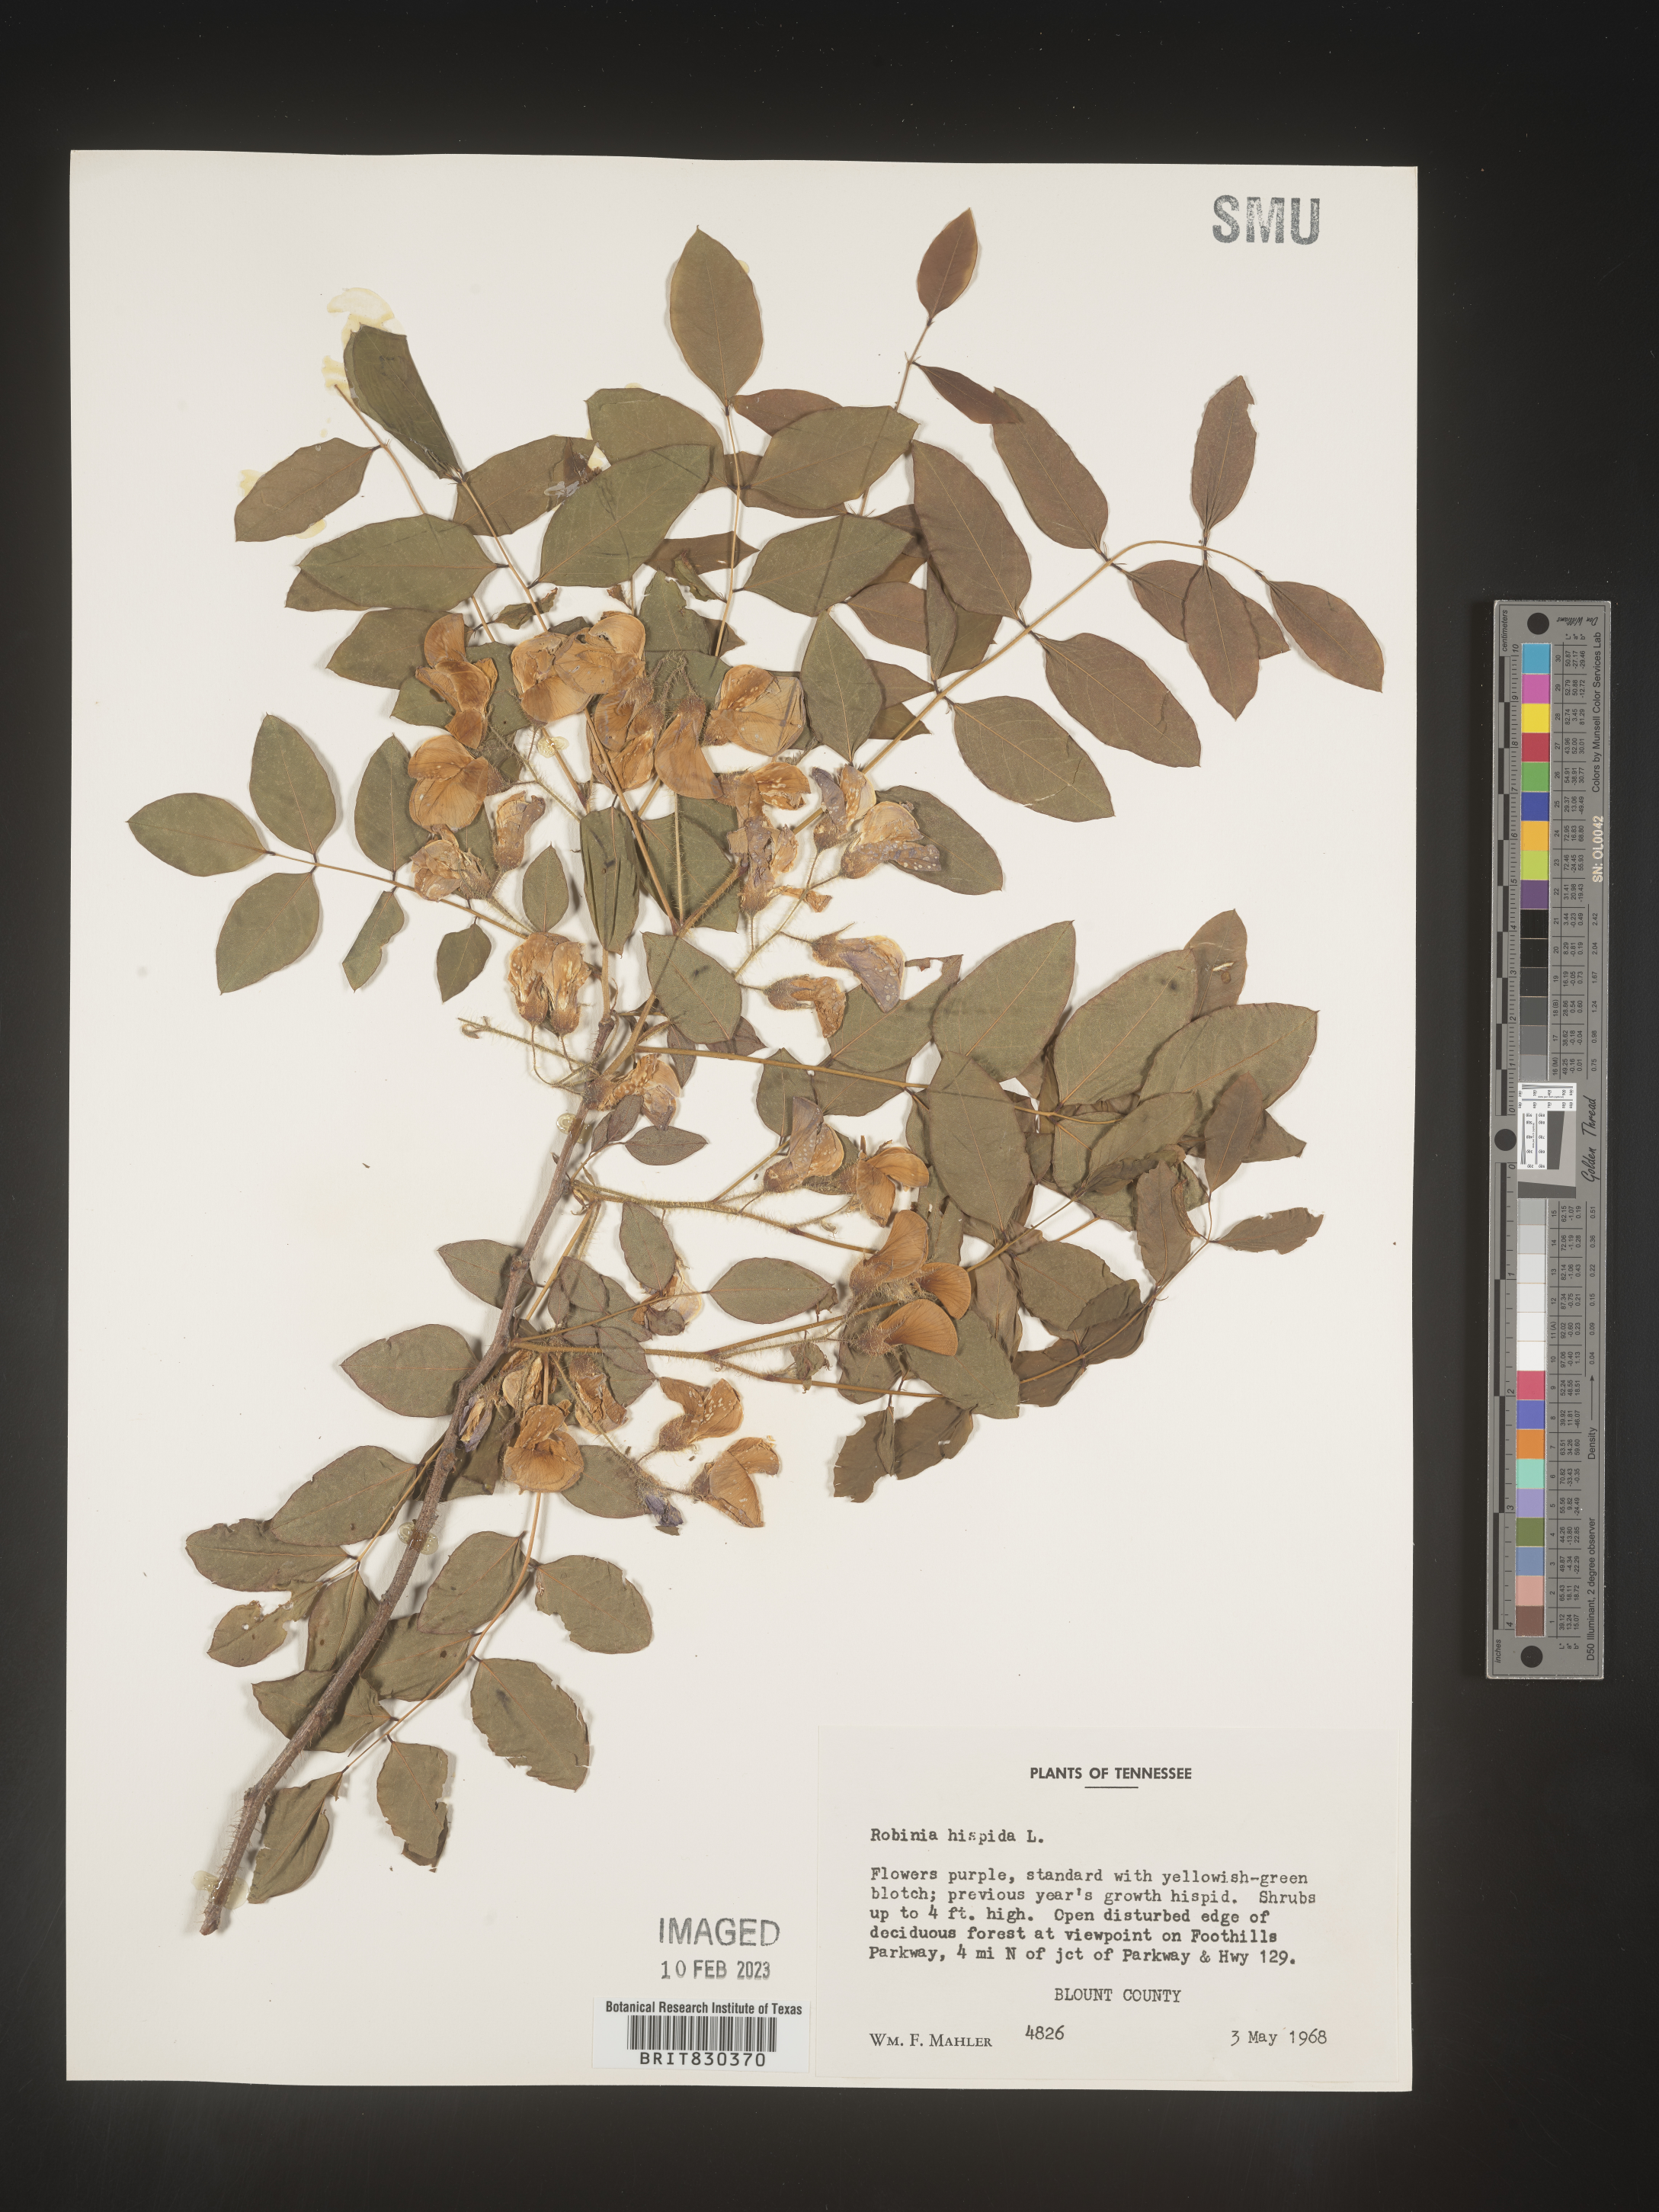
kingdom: Plantae
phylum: Tracheophyta
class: Magnoliopsida
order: Fabales
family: Fabaceae
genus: Robinia
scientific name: Robinia hispida
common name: Bristly locust
